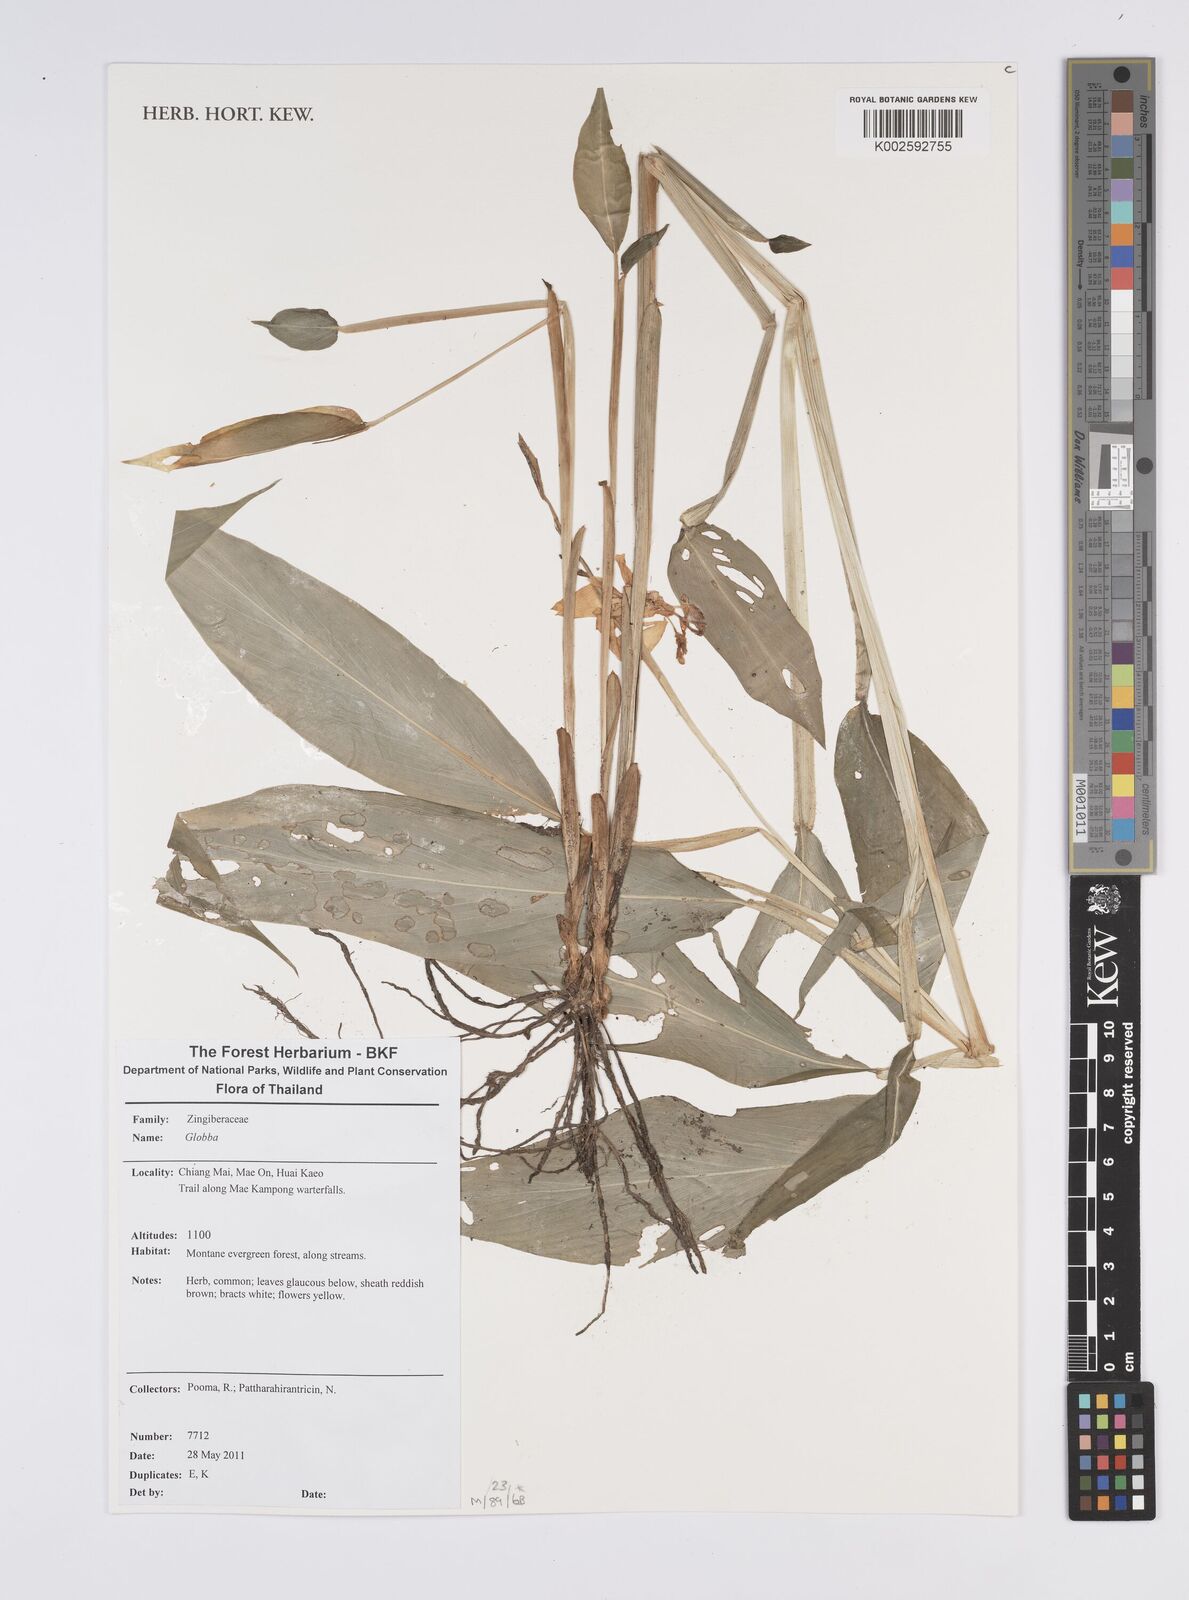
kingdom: Plantae
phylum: Tracheophyta
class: Liliopsida
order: Zingiberales
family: Zingiberaceae
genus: Globba
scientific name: Globba
